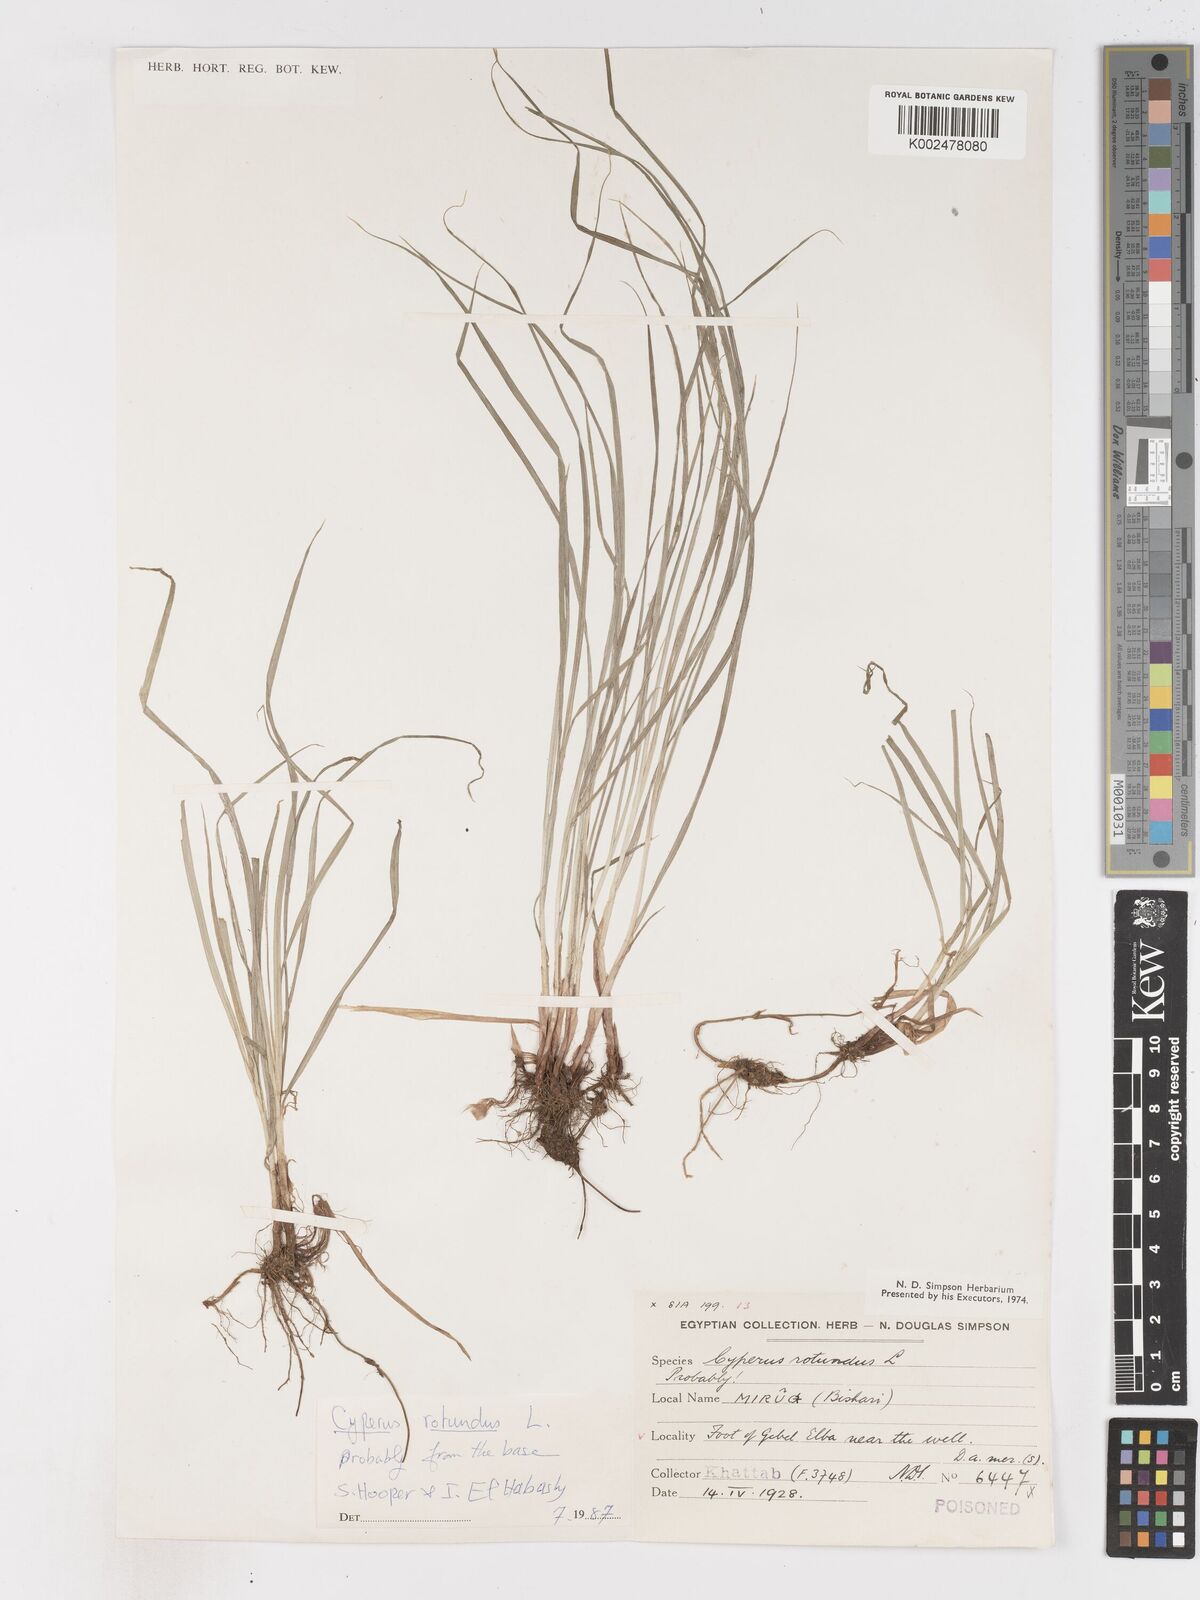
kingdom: Plantae
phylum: Tracheophyta
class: Liliopsida
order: Poales
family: Cyperaceae
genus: Cyperus
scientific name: Cyperus rotundus
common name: Nutgrass
